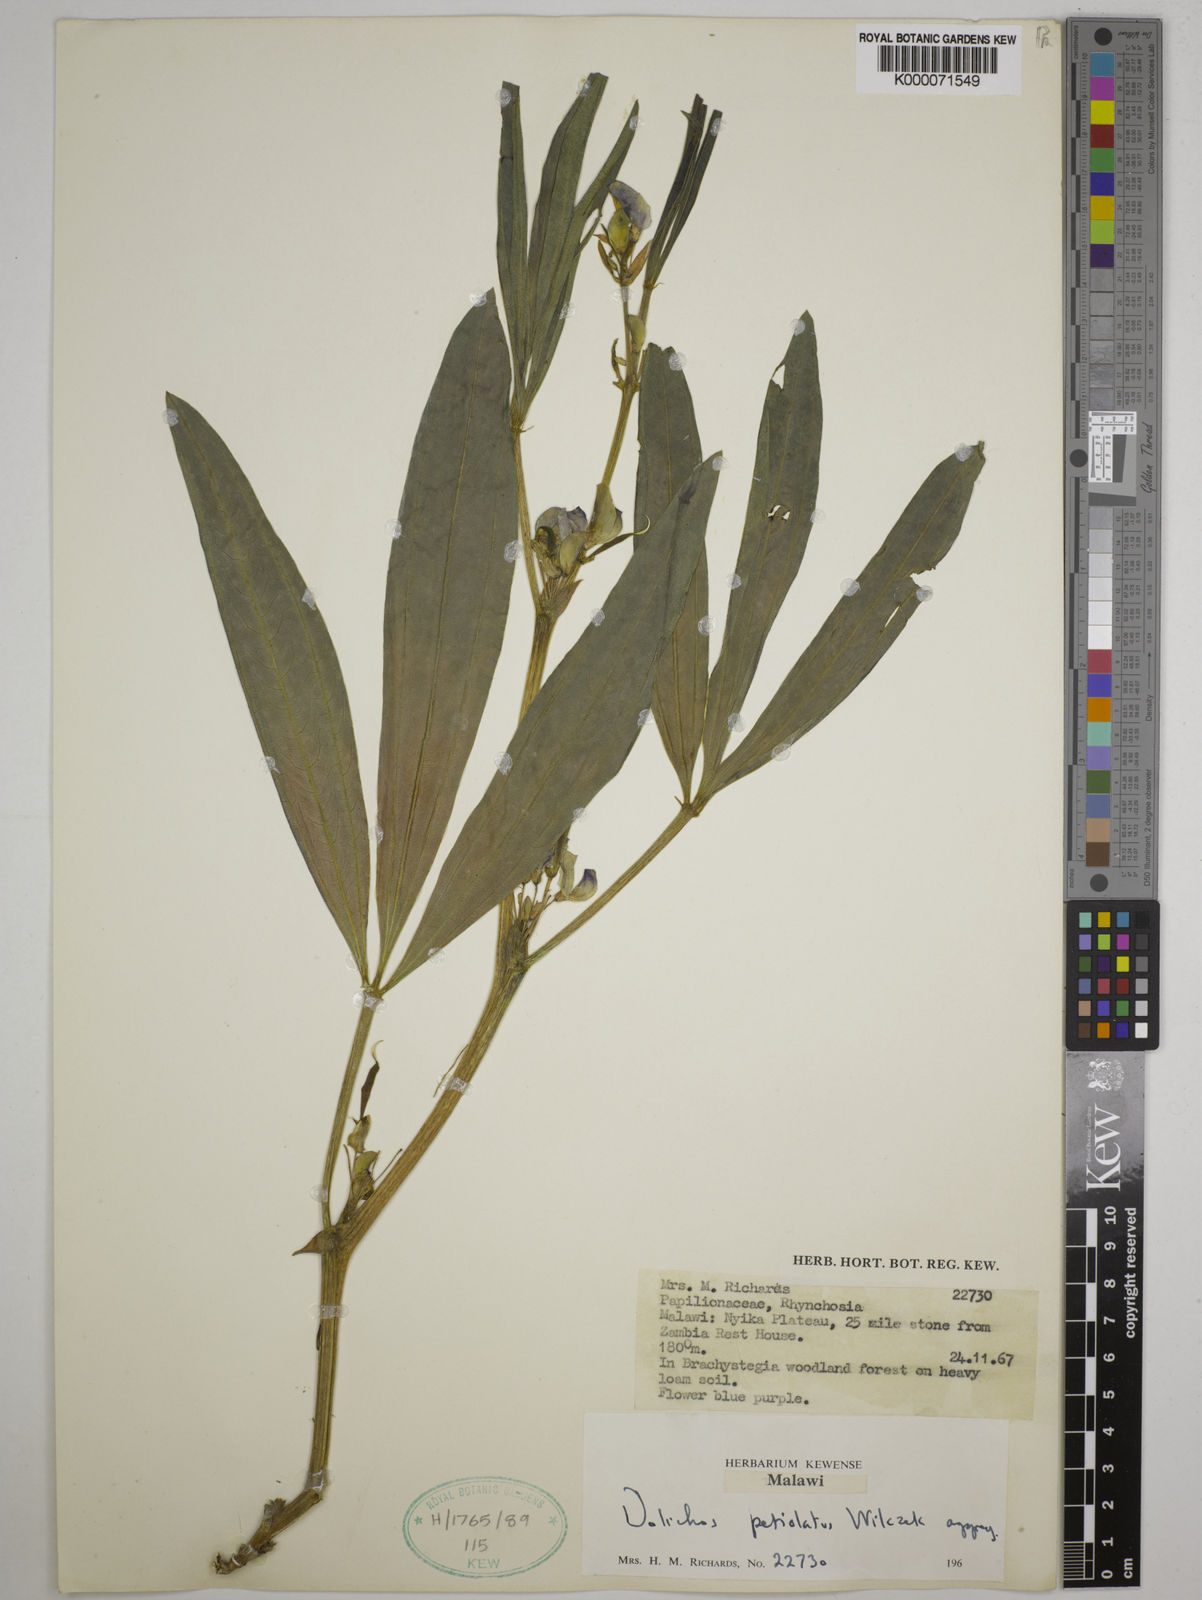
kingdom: Plantae
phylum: Tracheophyta
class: Magnoliopsida
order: Fabales
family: Fabaceae
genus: Dolichos
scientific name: Dolichos petiolatus
